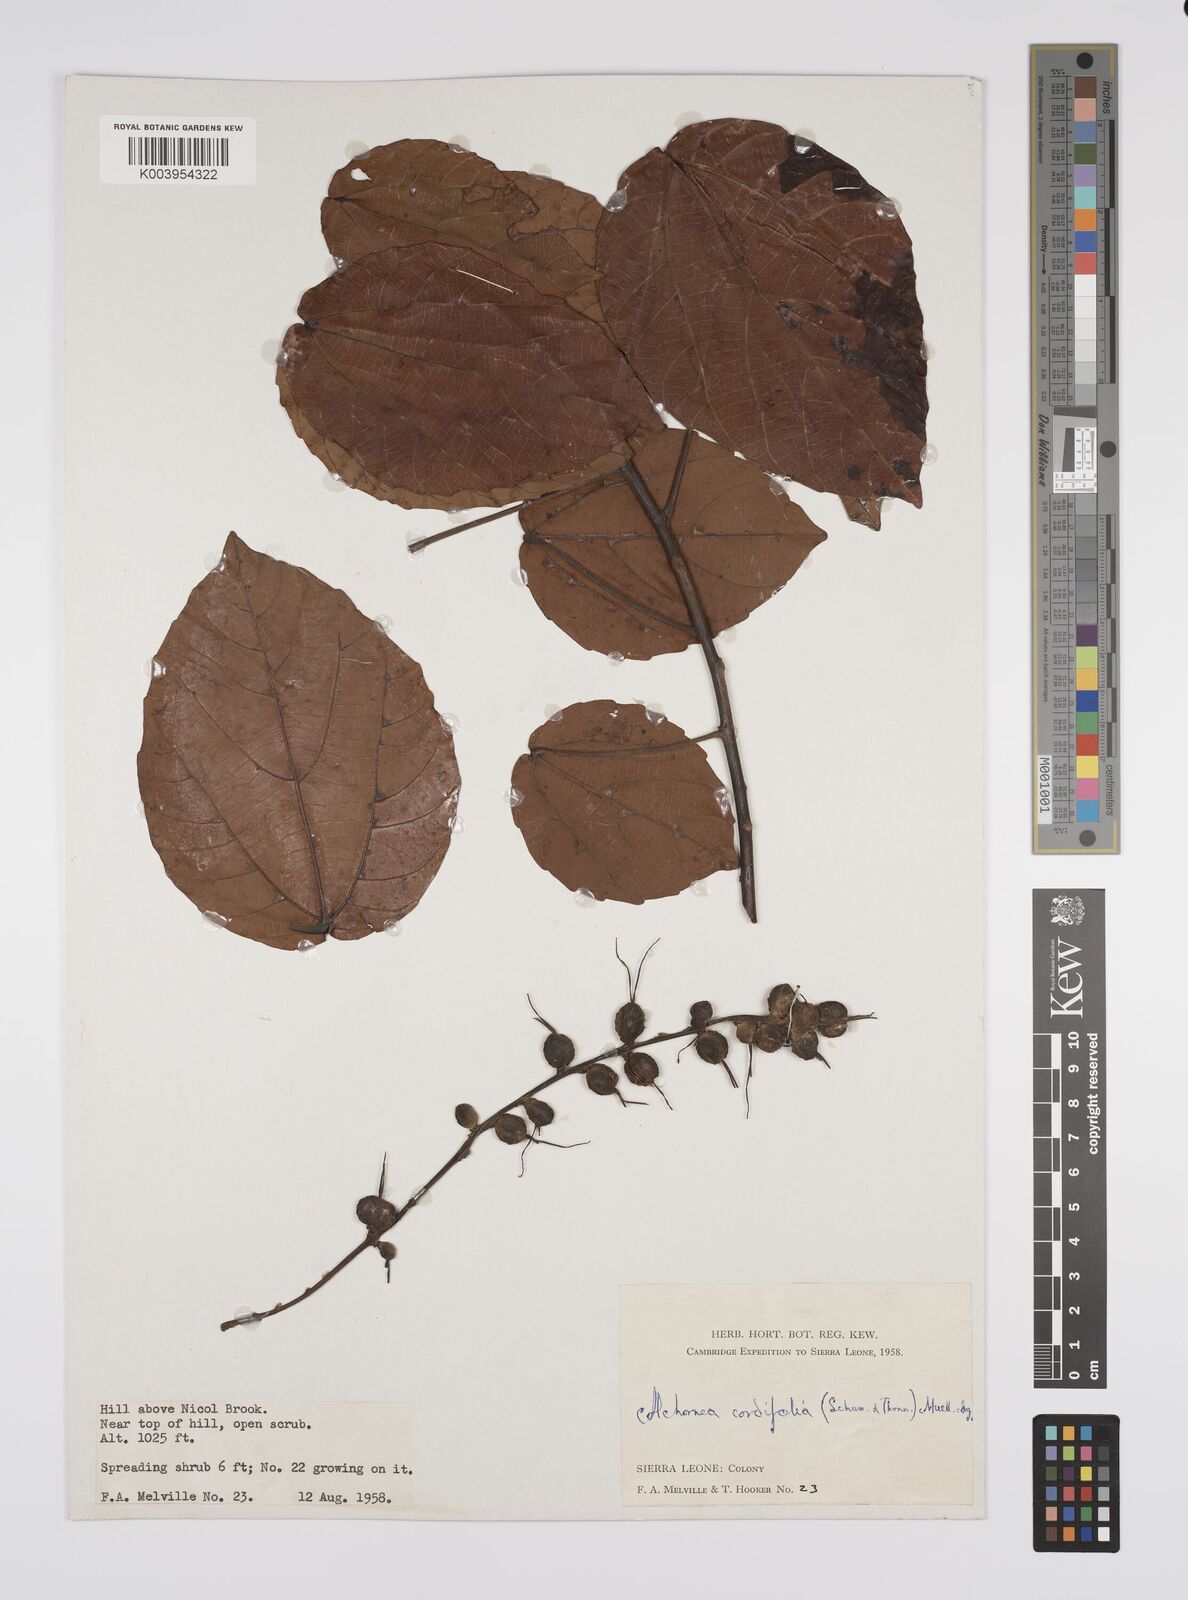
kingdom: Plantae
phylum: Tracheophyta
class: Magnoliopsida
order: Malpighiales
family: Euphorbiaceae
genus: Alchornea
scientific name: Alchornea cordifolia
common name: Christmasbush
